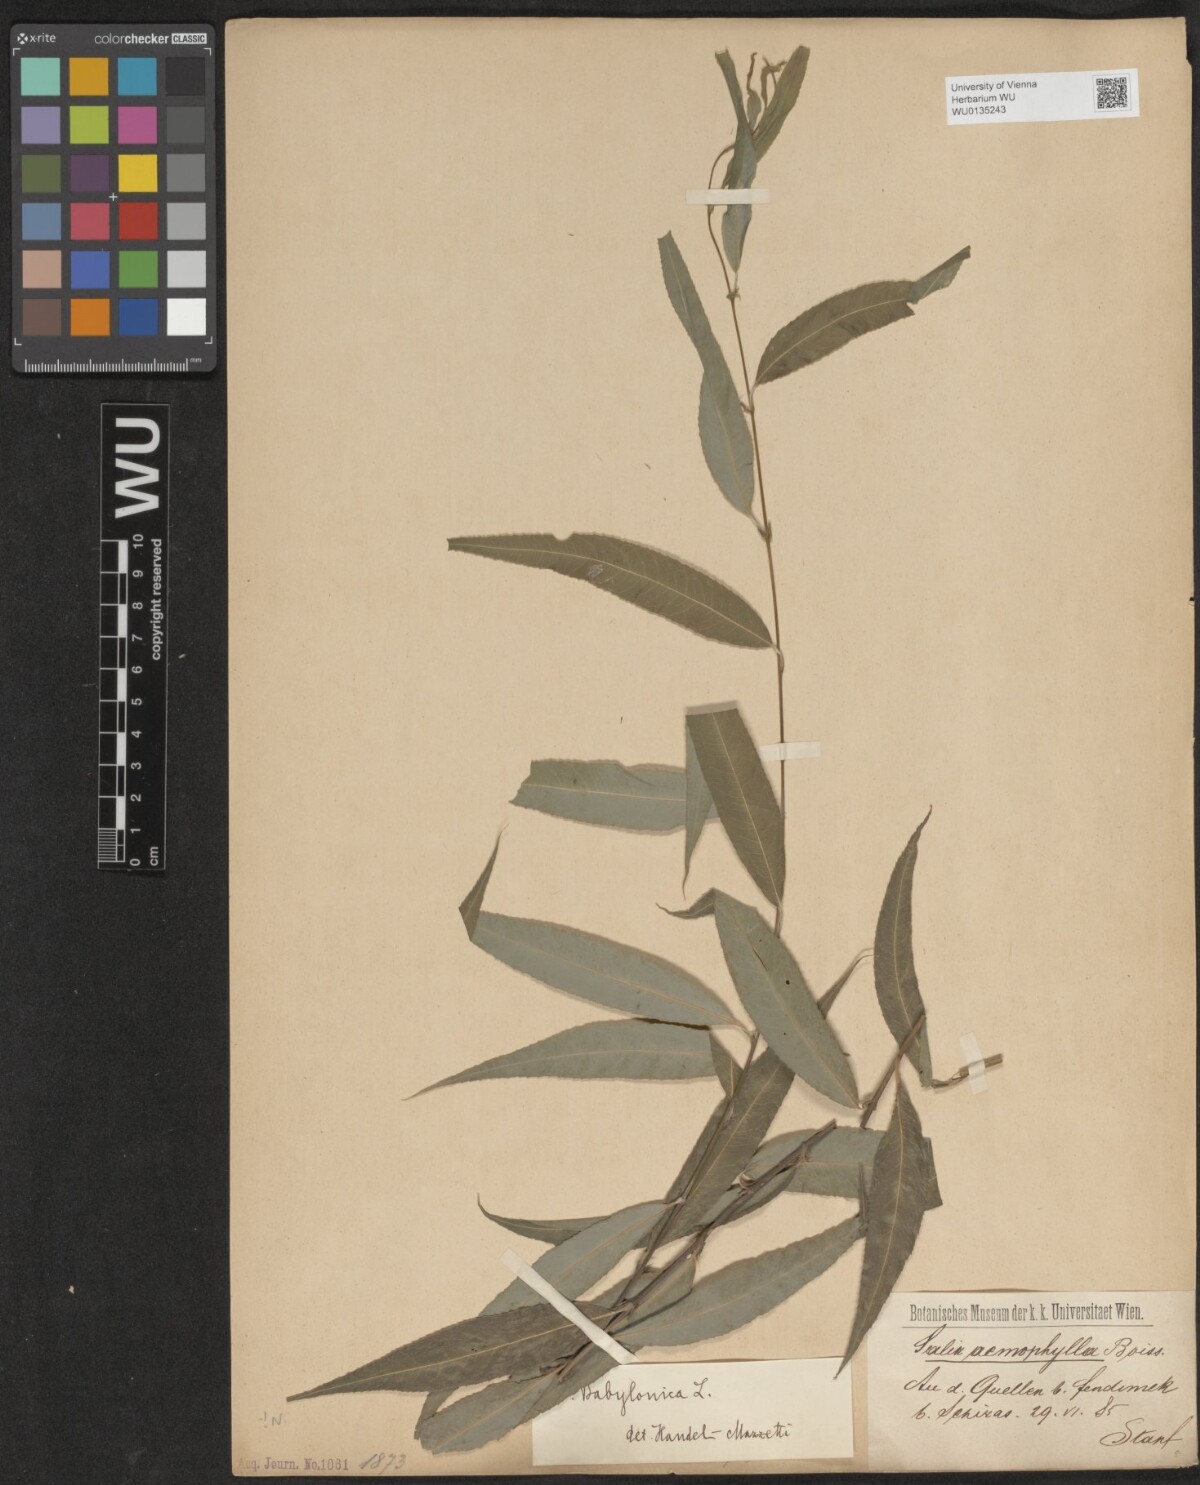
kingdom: Plantae
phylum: Tracheophyta
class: Magnoliopsida
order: Malpighiales
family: Salicaceae
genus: Salix
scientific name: Salix babylonica
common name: Weeping willow
